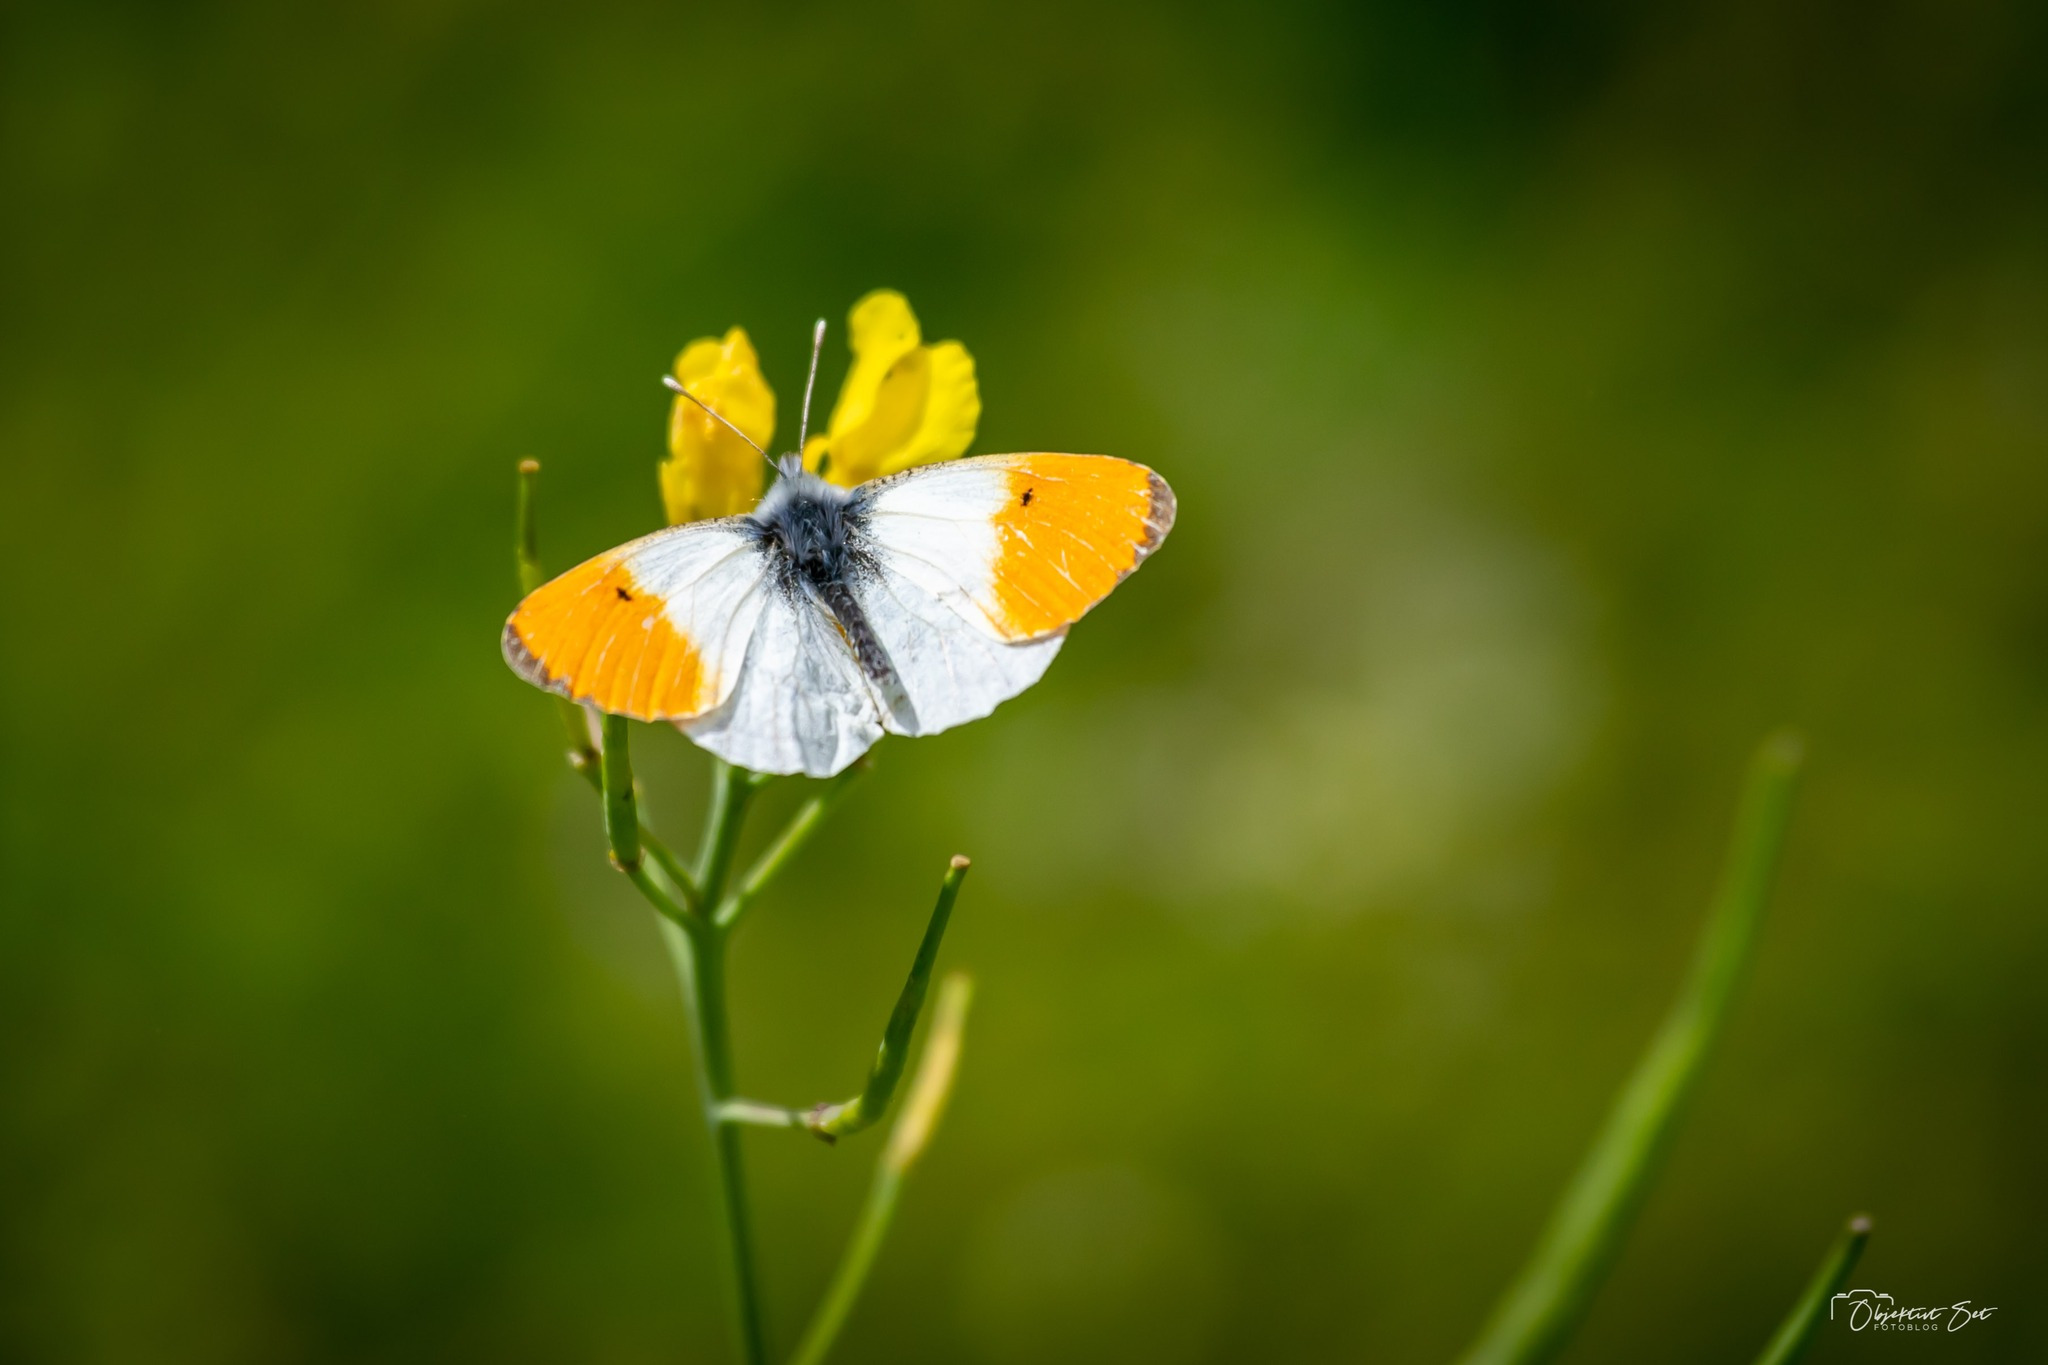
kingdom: Animalia
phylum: Arthropoda
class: Insecta
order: Lepidoptera
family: Pieridae
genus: Anthocharis
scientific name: Anthocharis cardamines
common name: Aurora
